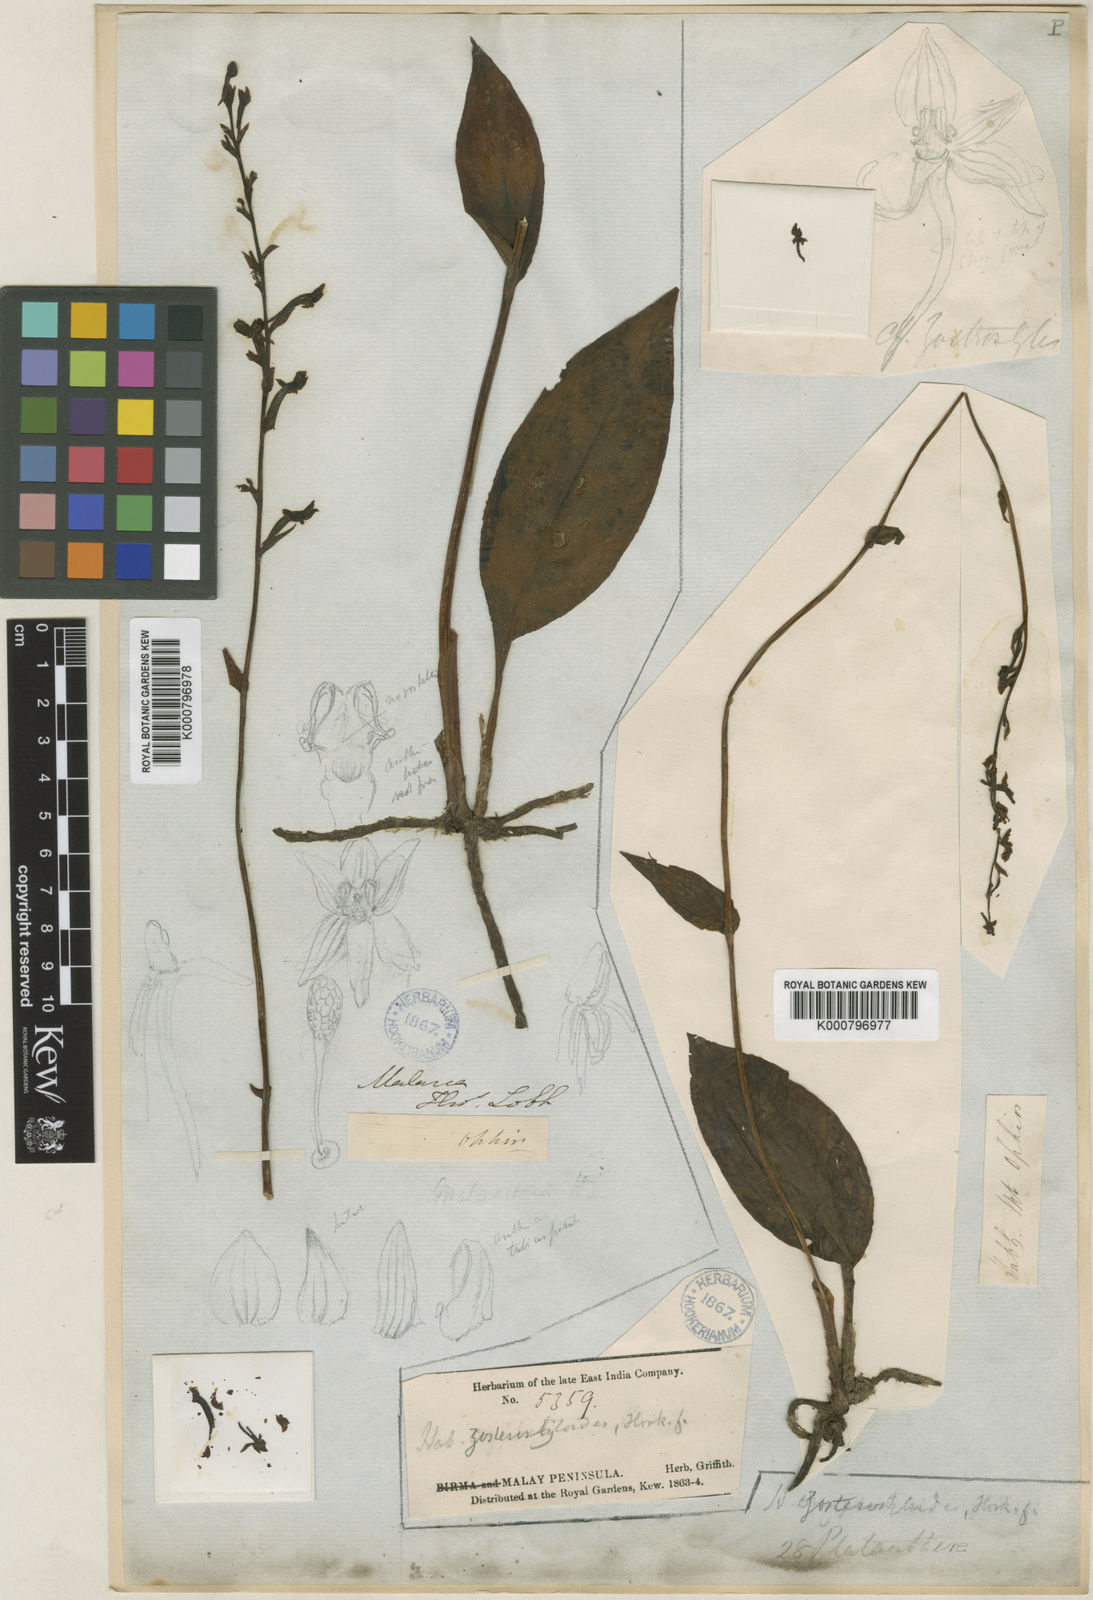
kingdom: Plantae
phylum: Tracheophyta
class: Liliopsida
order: Asparagales
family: Orchidaceae
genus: Platanthera
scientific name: Platanthera angustata
